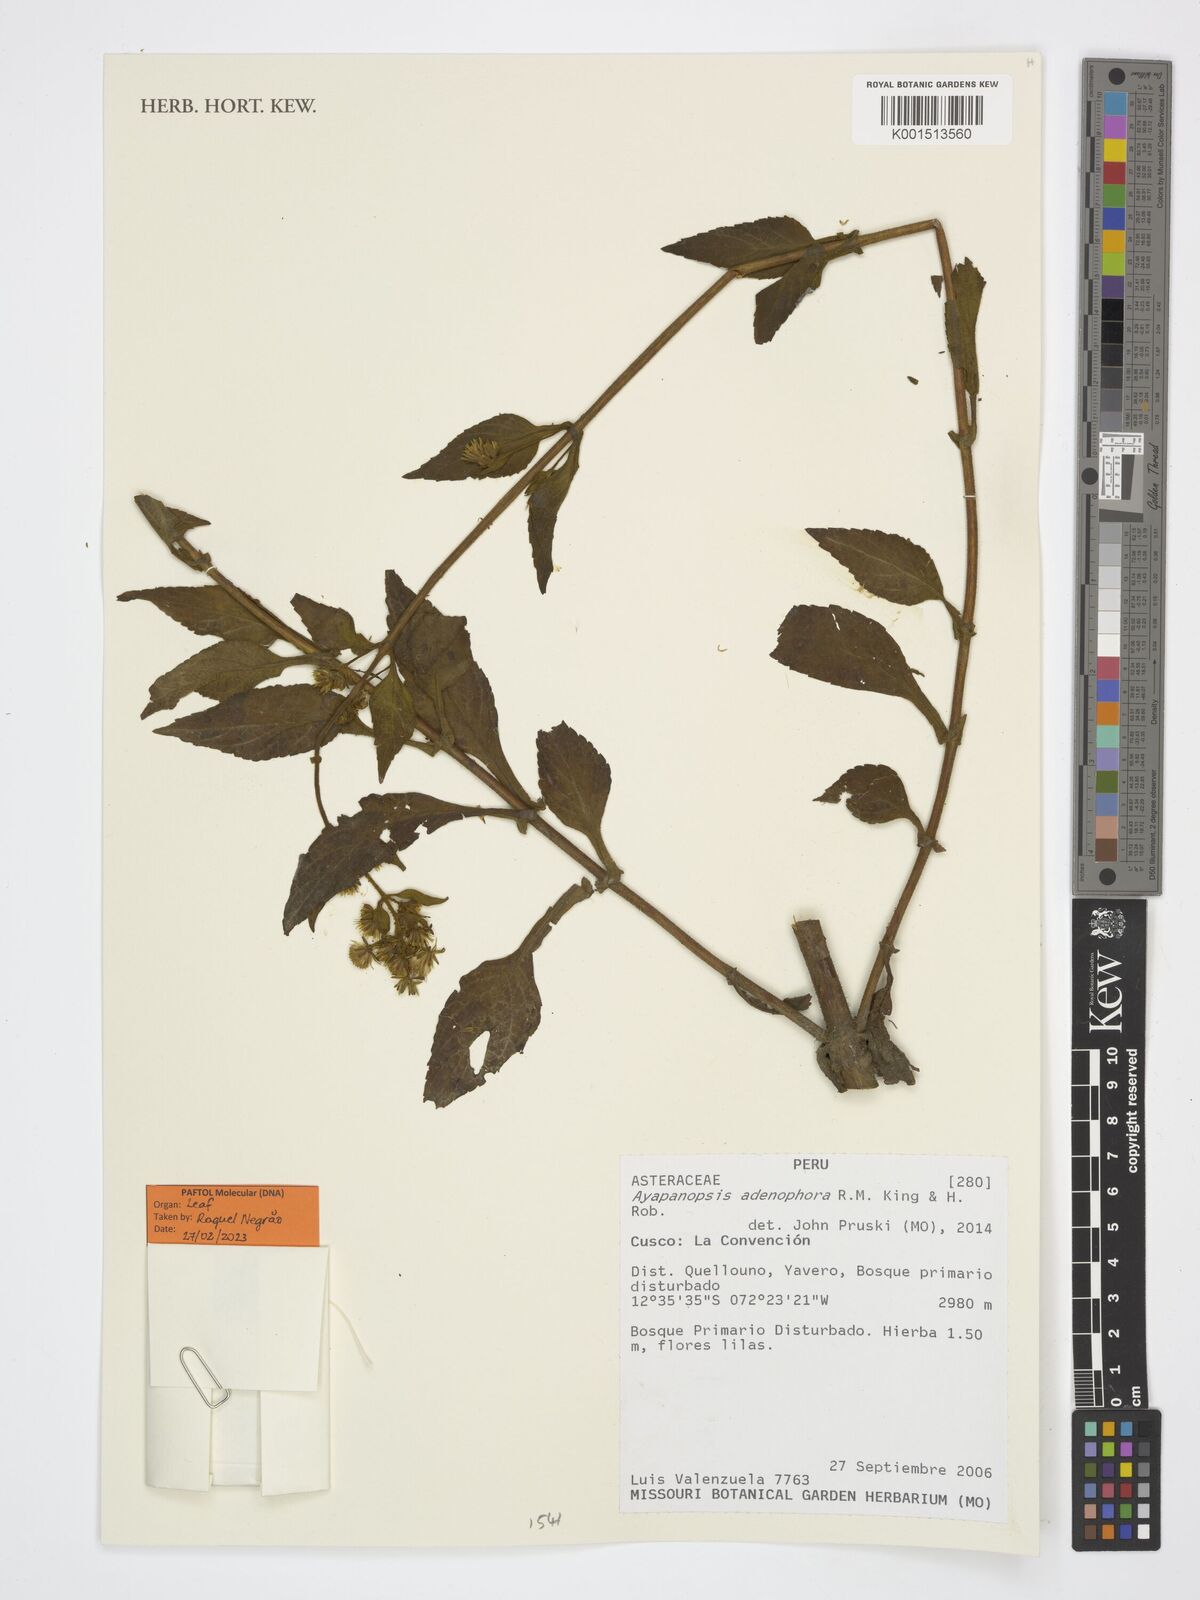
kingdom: Plantae
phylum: Tracheophyta
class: Magnoliopsida
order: Asterales
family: Asteraceae
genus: Ayapanopsis
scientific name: Ayapanopsis adenophora
